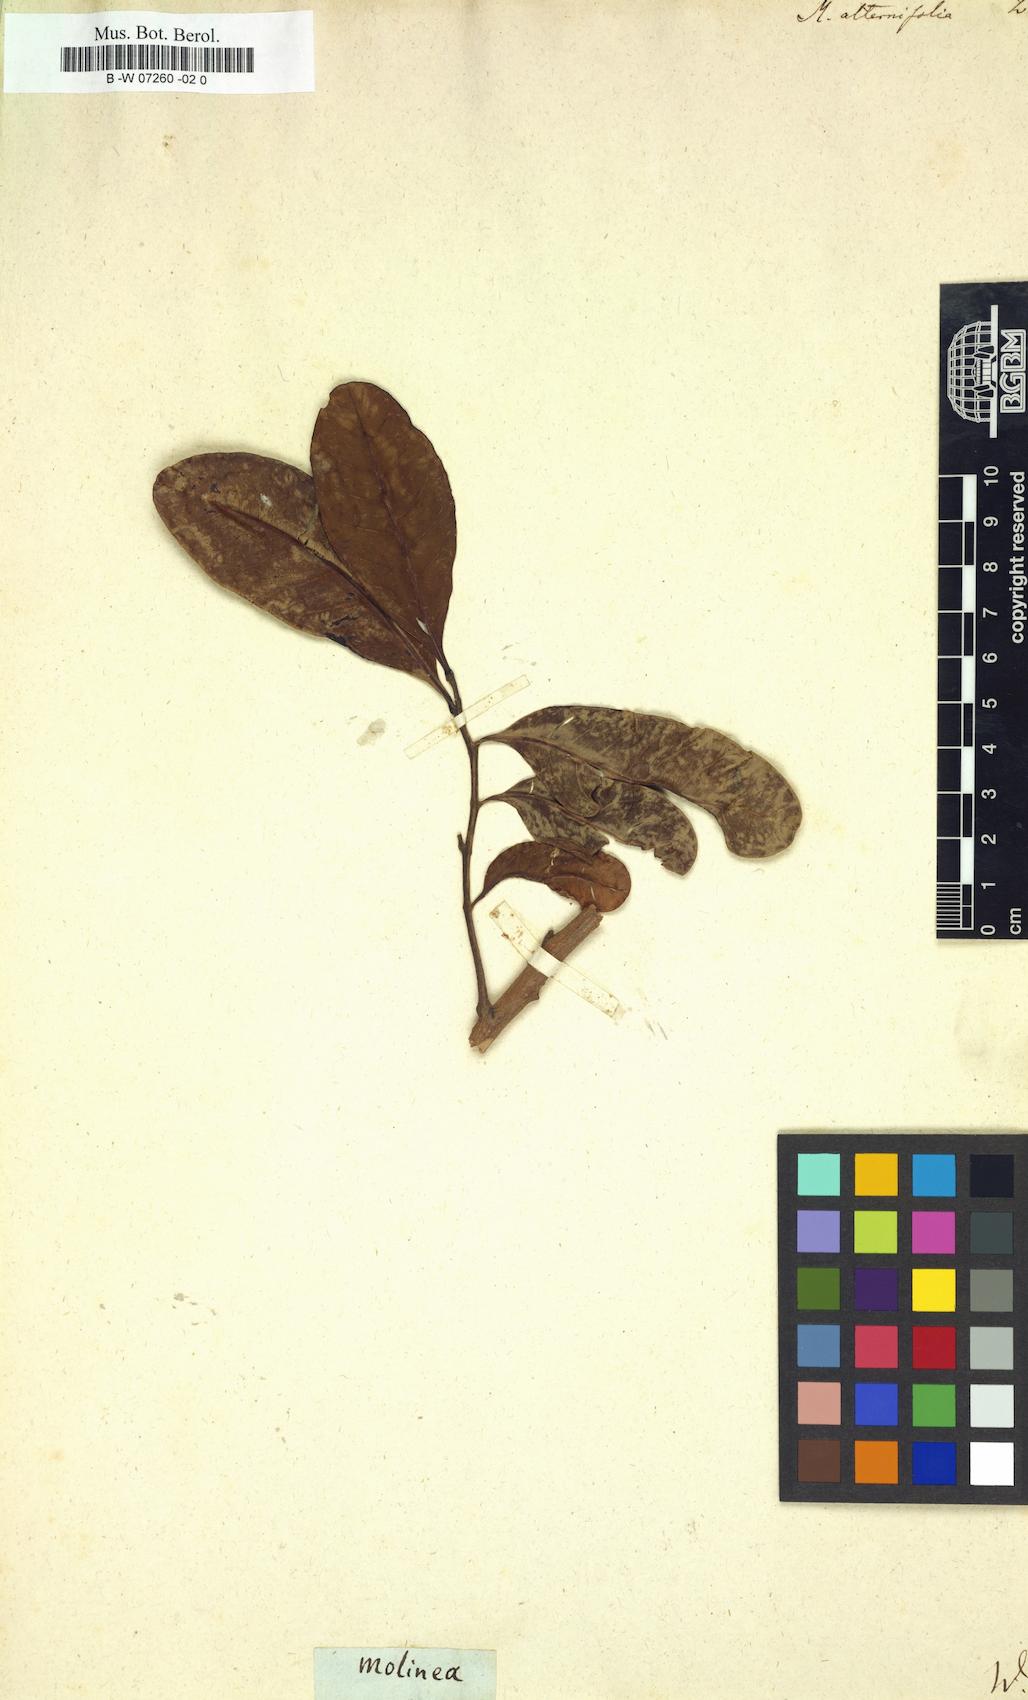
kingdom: Plantae
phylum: Tracheophyta
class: Magnoliopsida
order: Sapindales
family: Sapindaceae
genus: Molinaea
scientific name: Molinaea alternifolia
